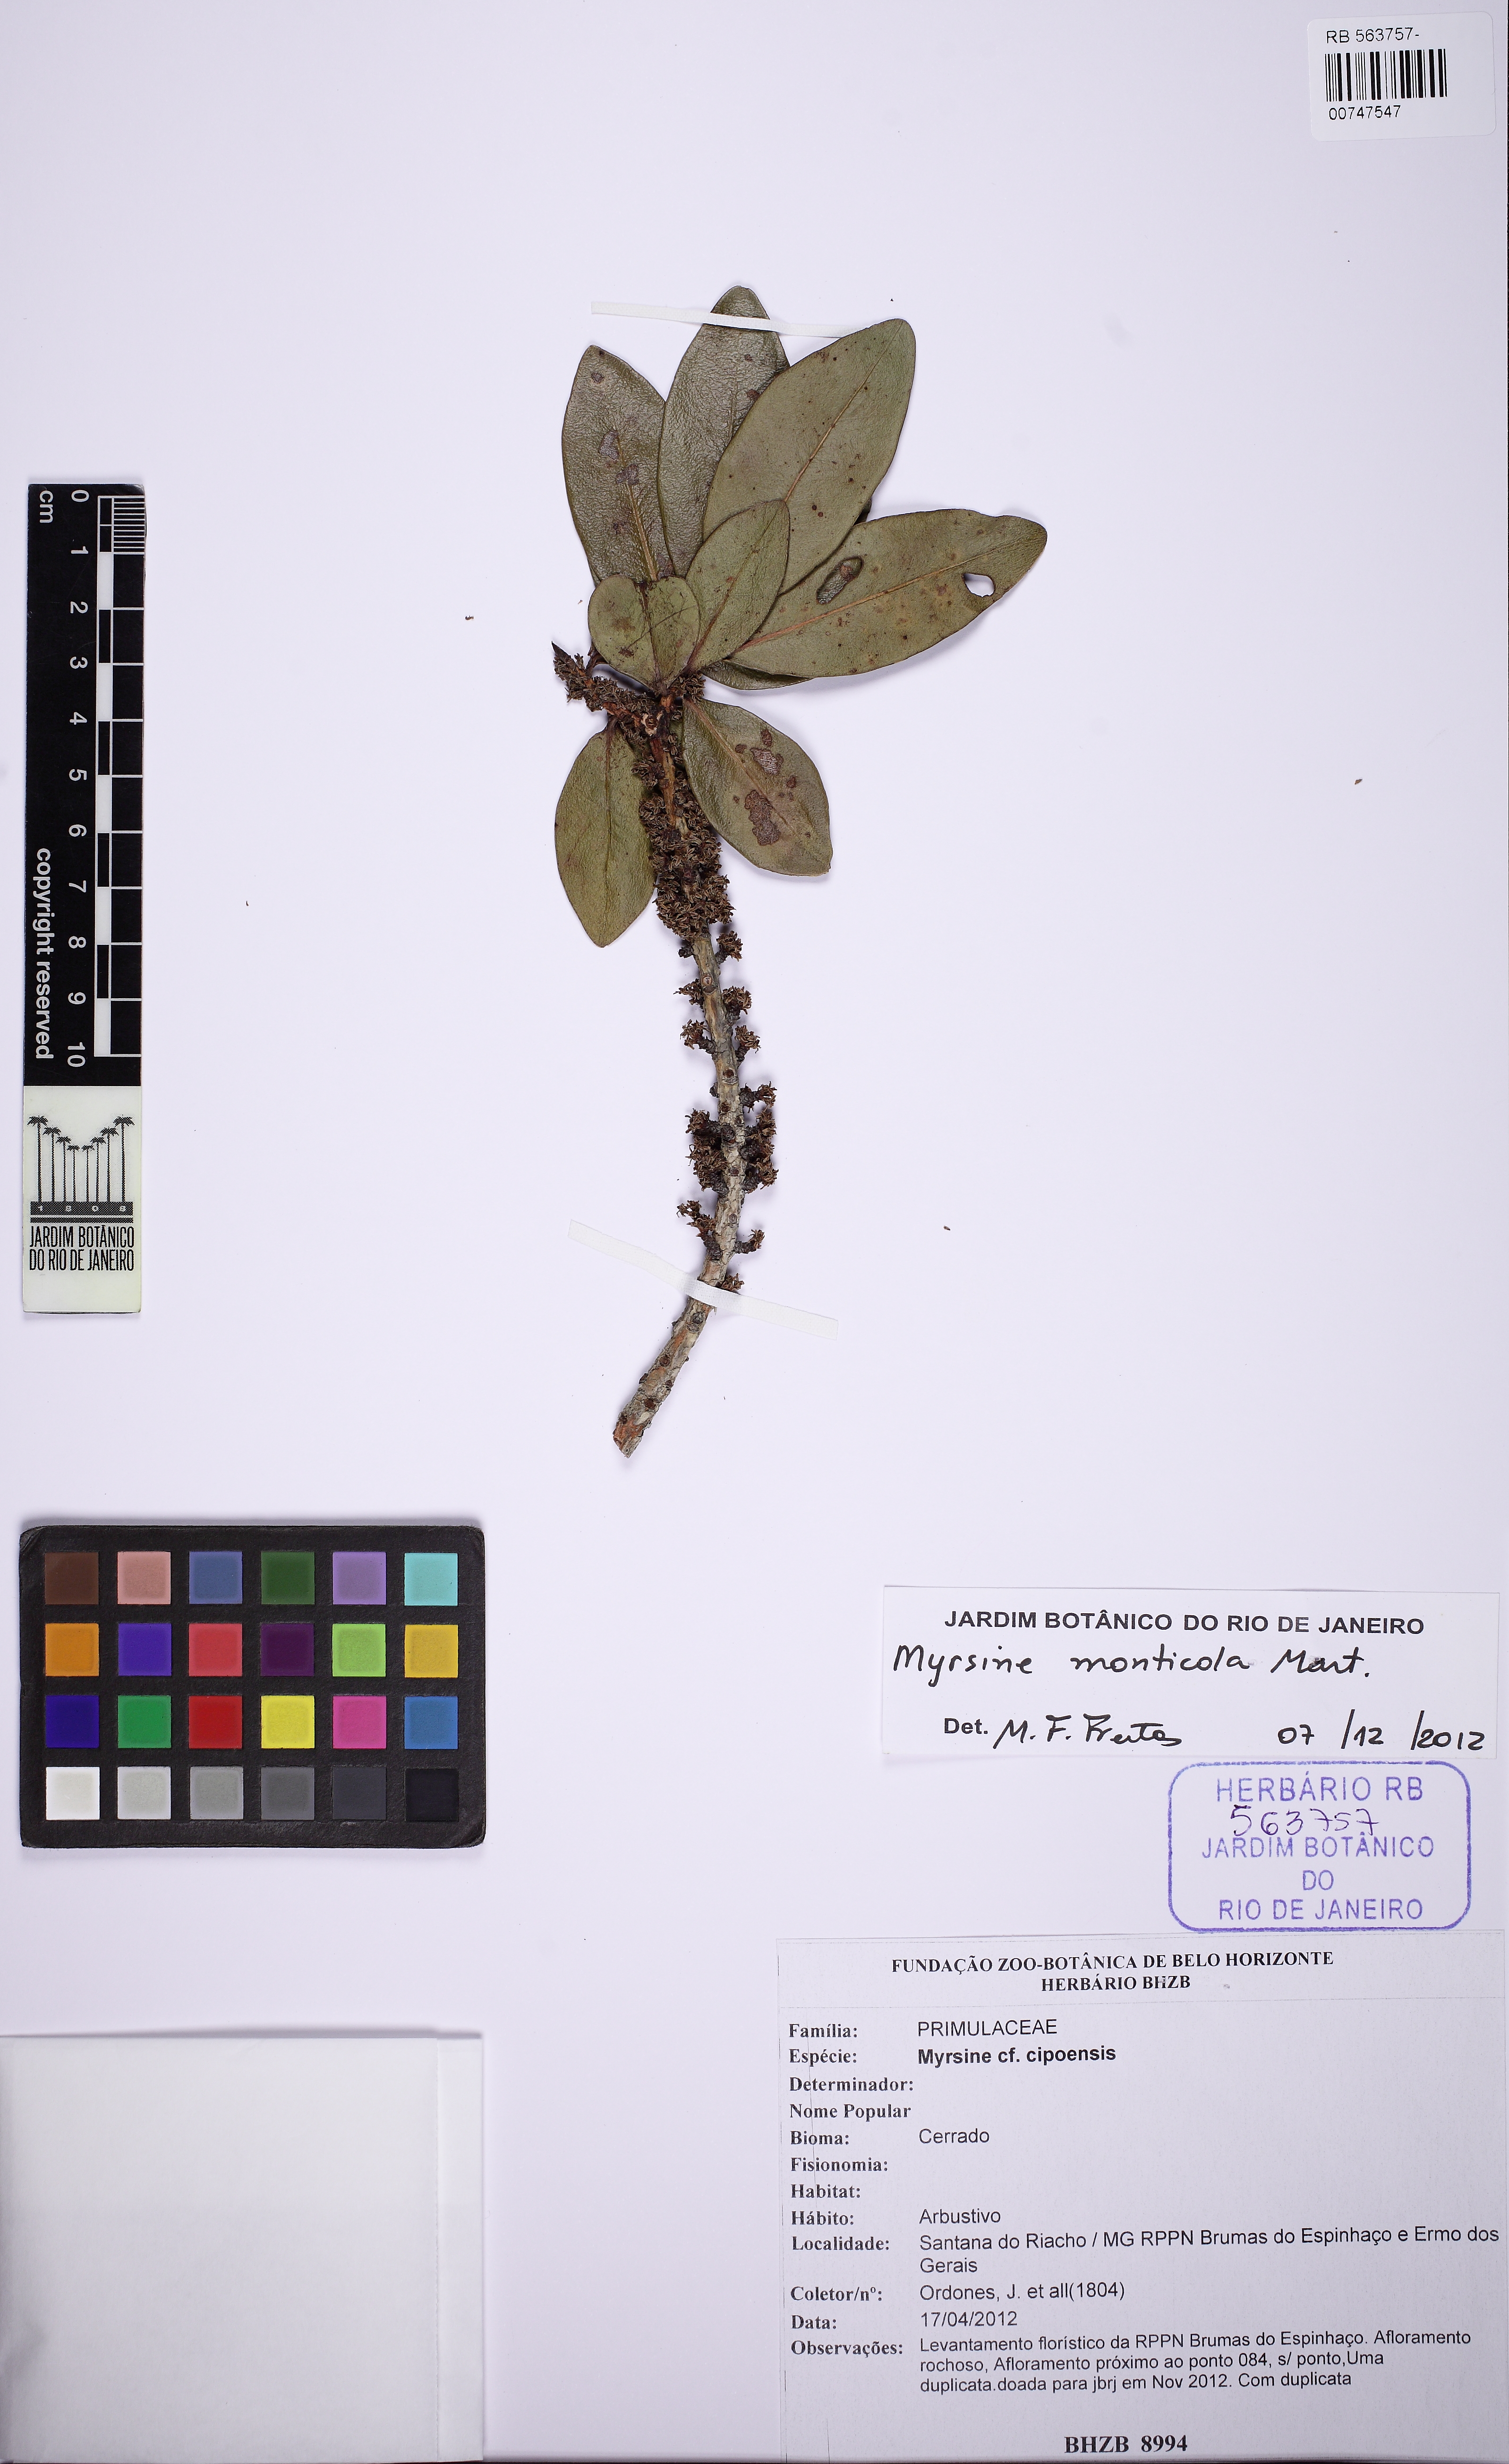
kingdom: Plantae
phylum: Tracheophyta
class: Magnoliopsida
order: Ericales
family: Primulaceae
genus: Myrsine
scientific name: Myrsine monticola
